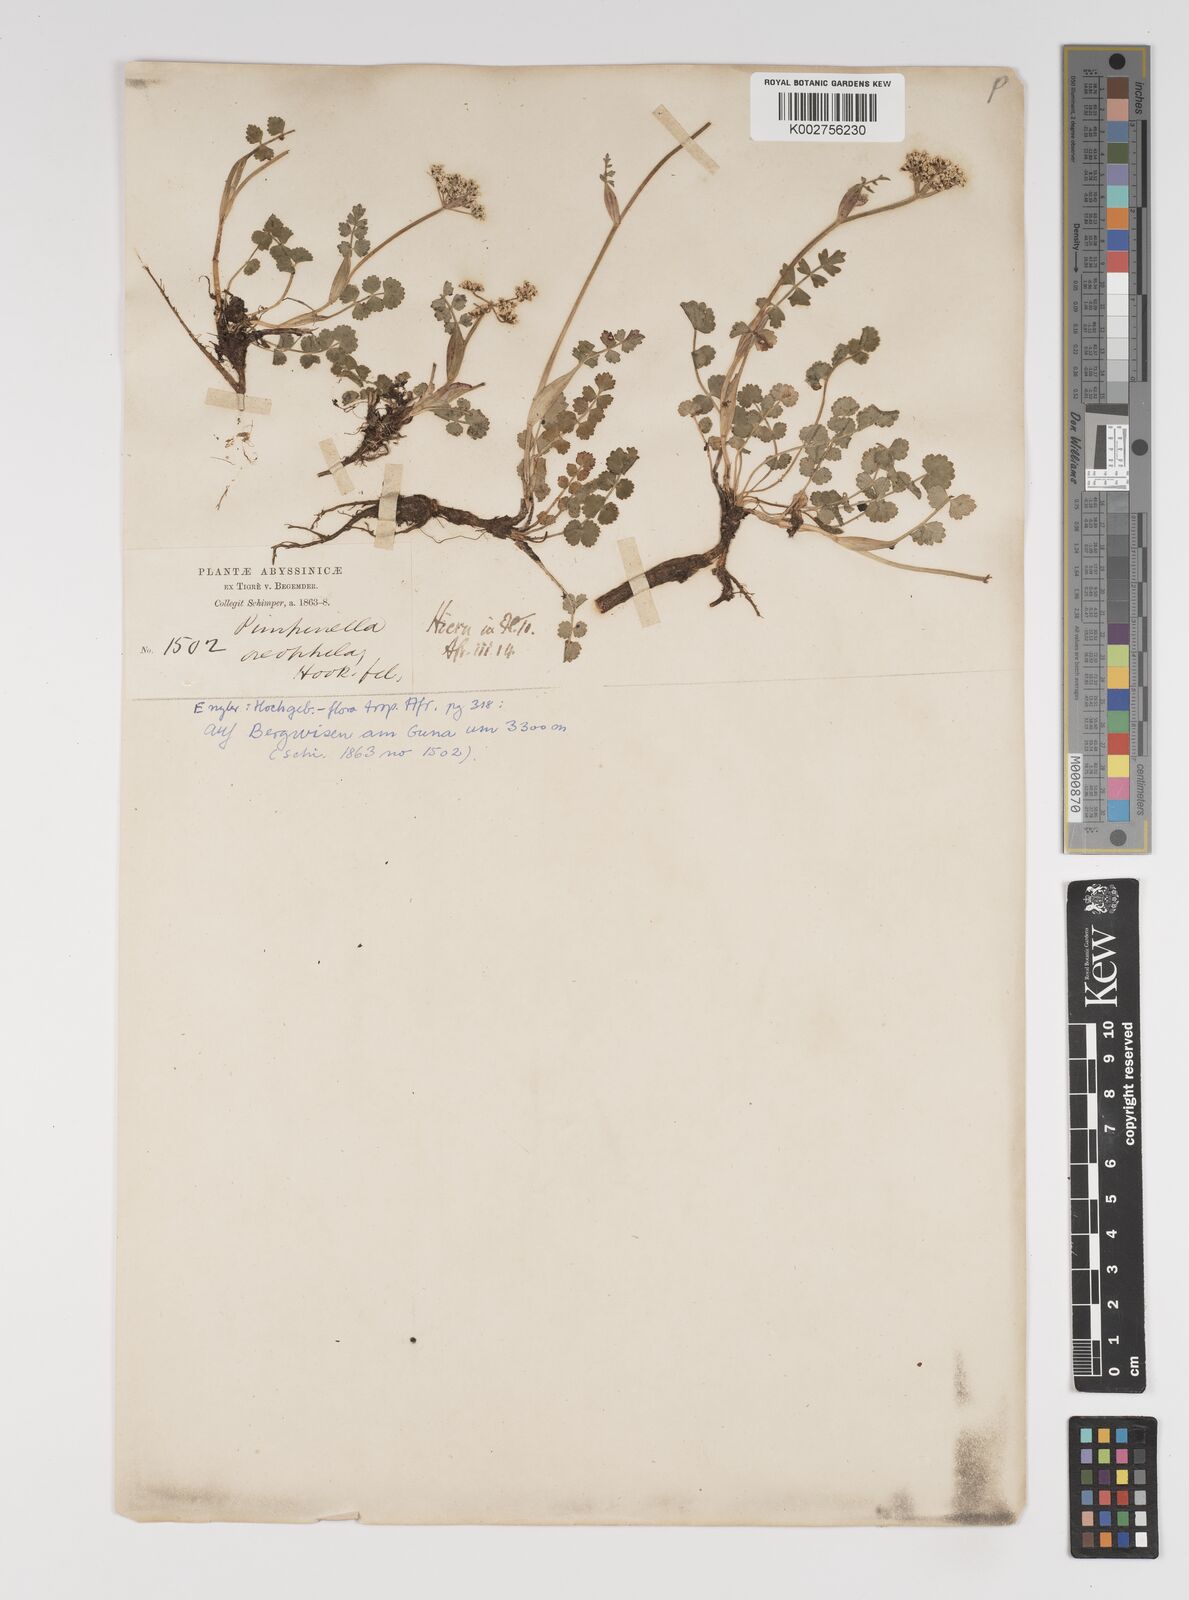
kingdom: Plantae
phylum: Tracheophyta
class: Magnoliopsida
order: Apiales
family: Apiaceae
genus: Pimpinella
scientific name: Pimpinella oreophila
